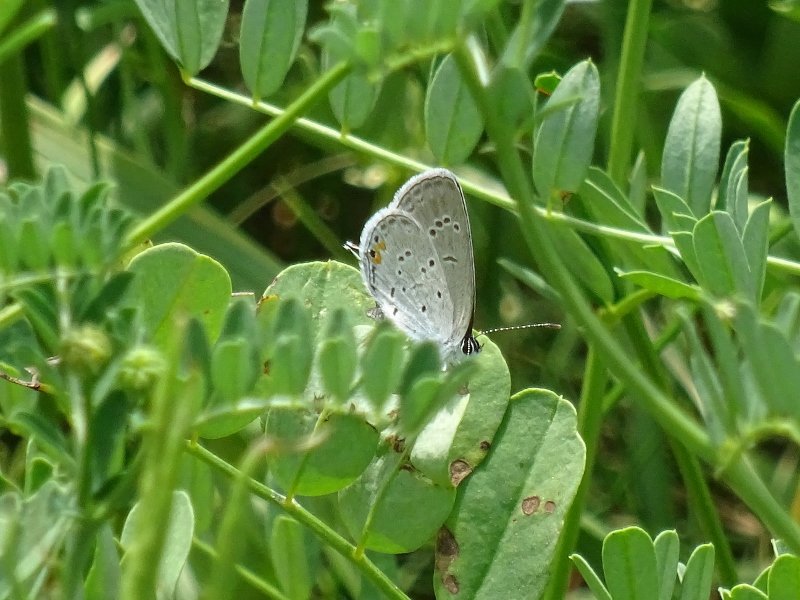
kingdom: Animalia
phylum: Arthropoda
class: Insecta
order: Lepidoptera
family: Lycaenidae
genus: Elkalyce
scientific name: Elkalyce comyntas
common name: Eastern Tailed-Blue
